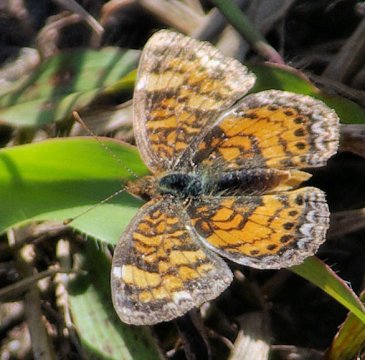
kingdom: Animalia
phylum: Arthropoda
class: Insecta
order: Lepidoptera
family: Nymphalidae
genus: Phyciodes
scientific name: Phyciodes tharos
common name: Pearl Crescent
